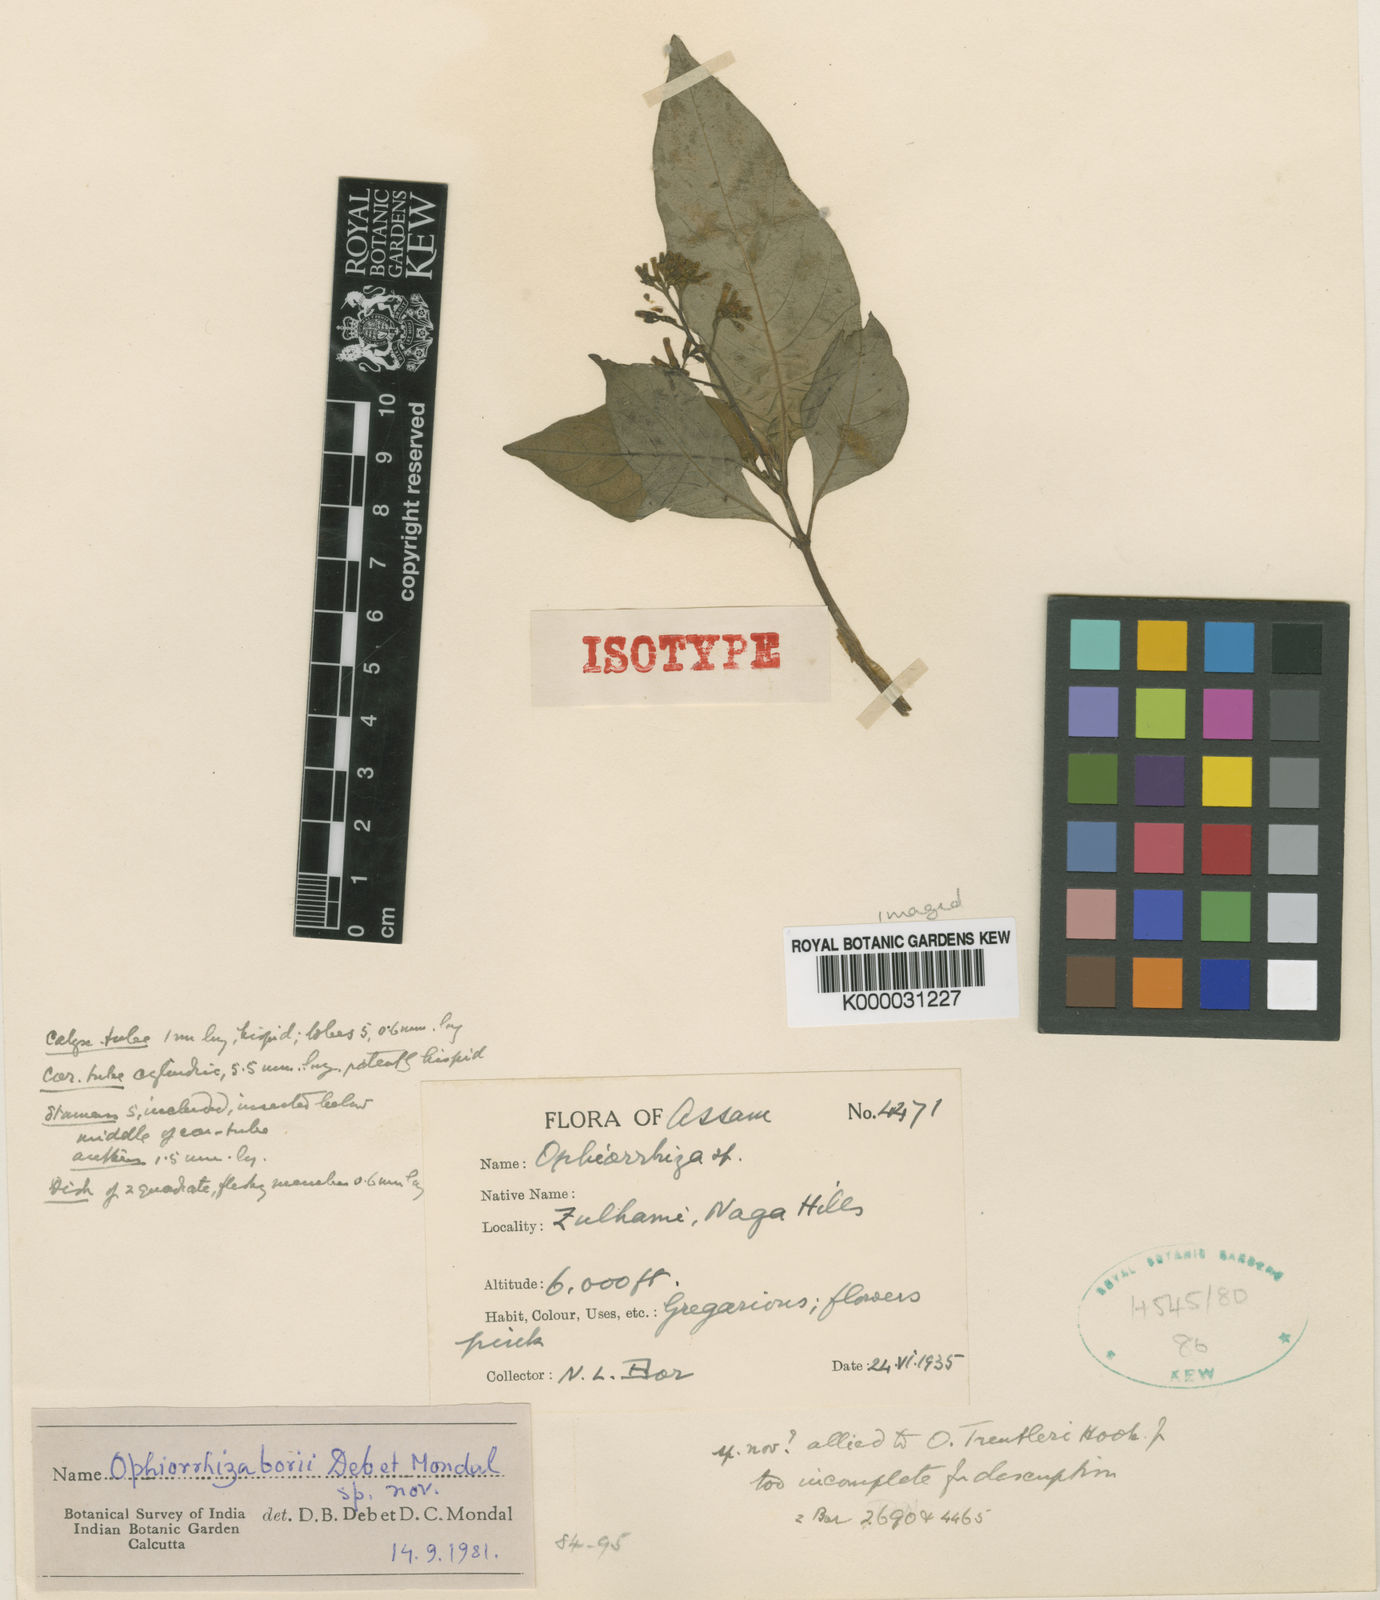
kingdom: Plantae
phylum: Tracheophyta
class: Magnoliopsida
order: Gentianales
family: Rubiaceae
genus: Ophiorrhiza
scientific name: Ophiorrhiza
